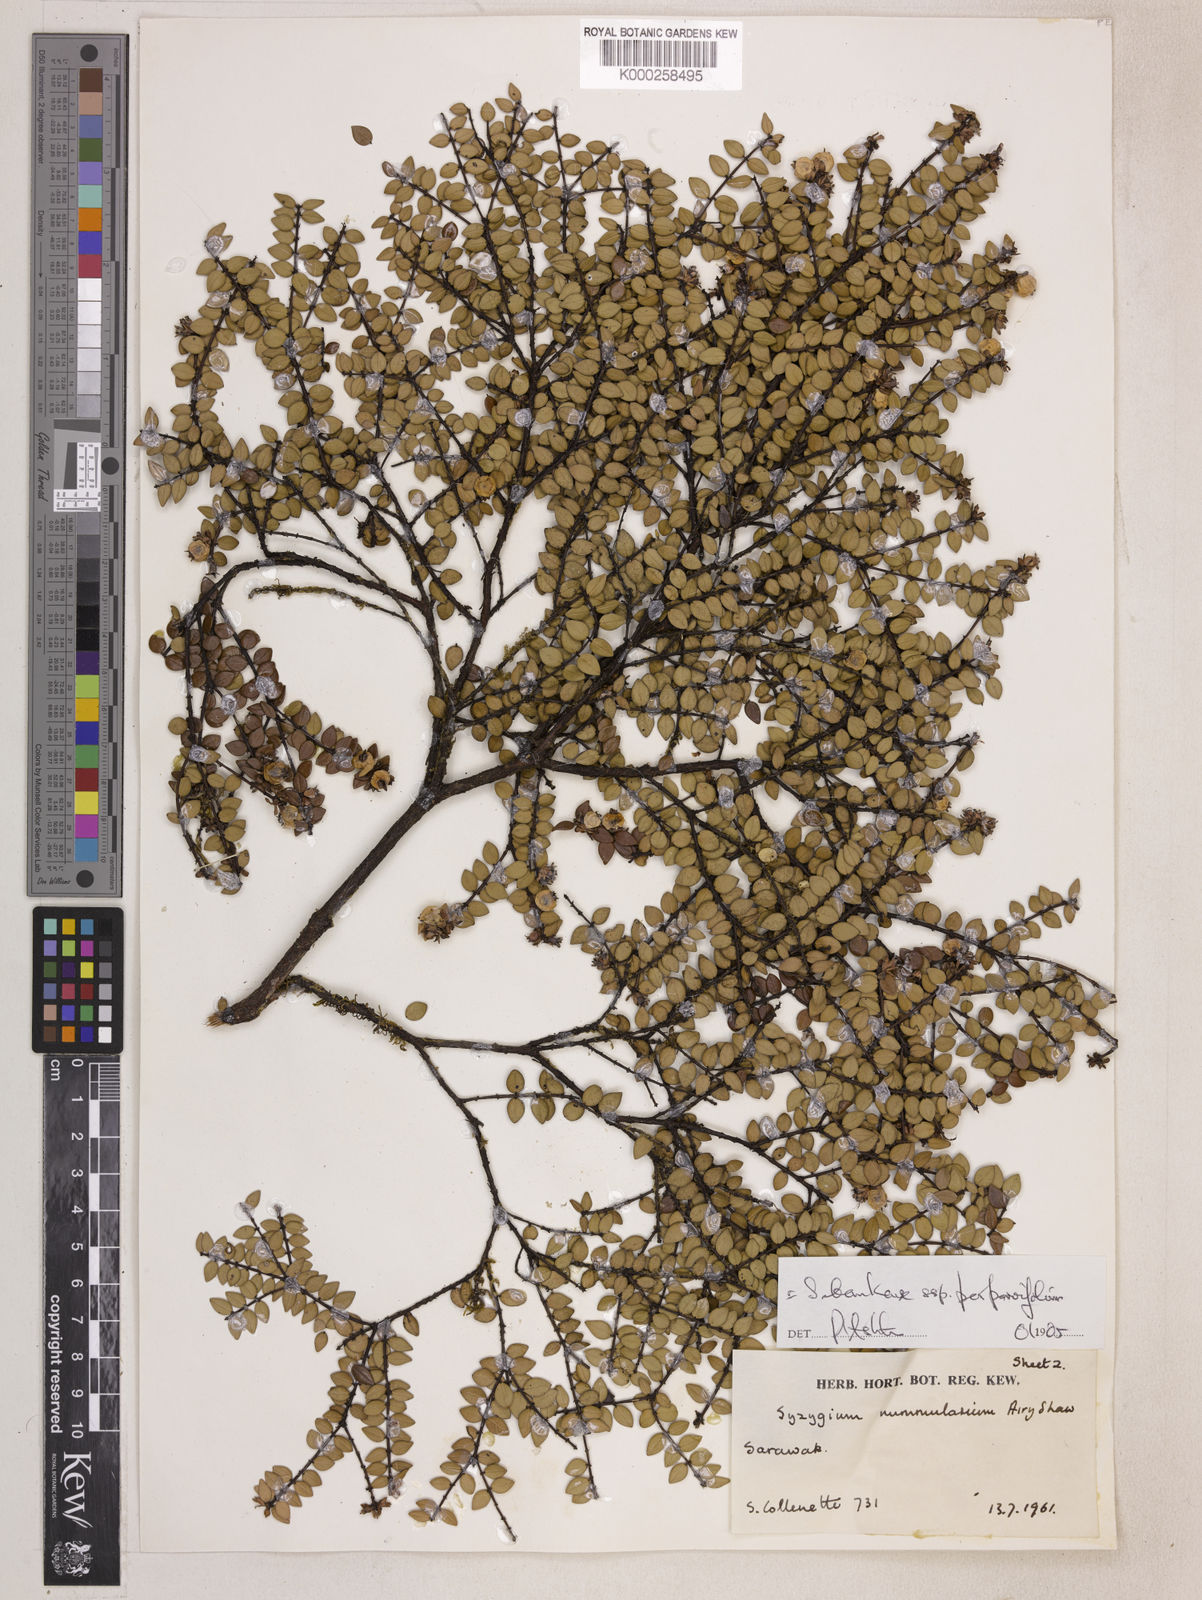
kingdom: Plantae
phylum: Tracheophyta
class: Magnoliopsida
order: Asterales
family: Asteraceae
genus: Lepidaploa
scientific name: Lepidaploa nitens
